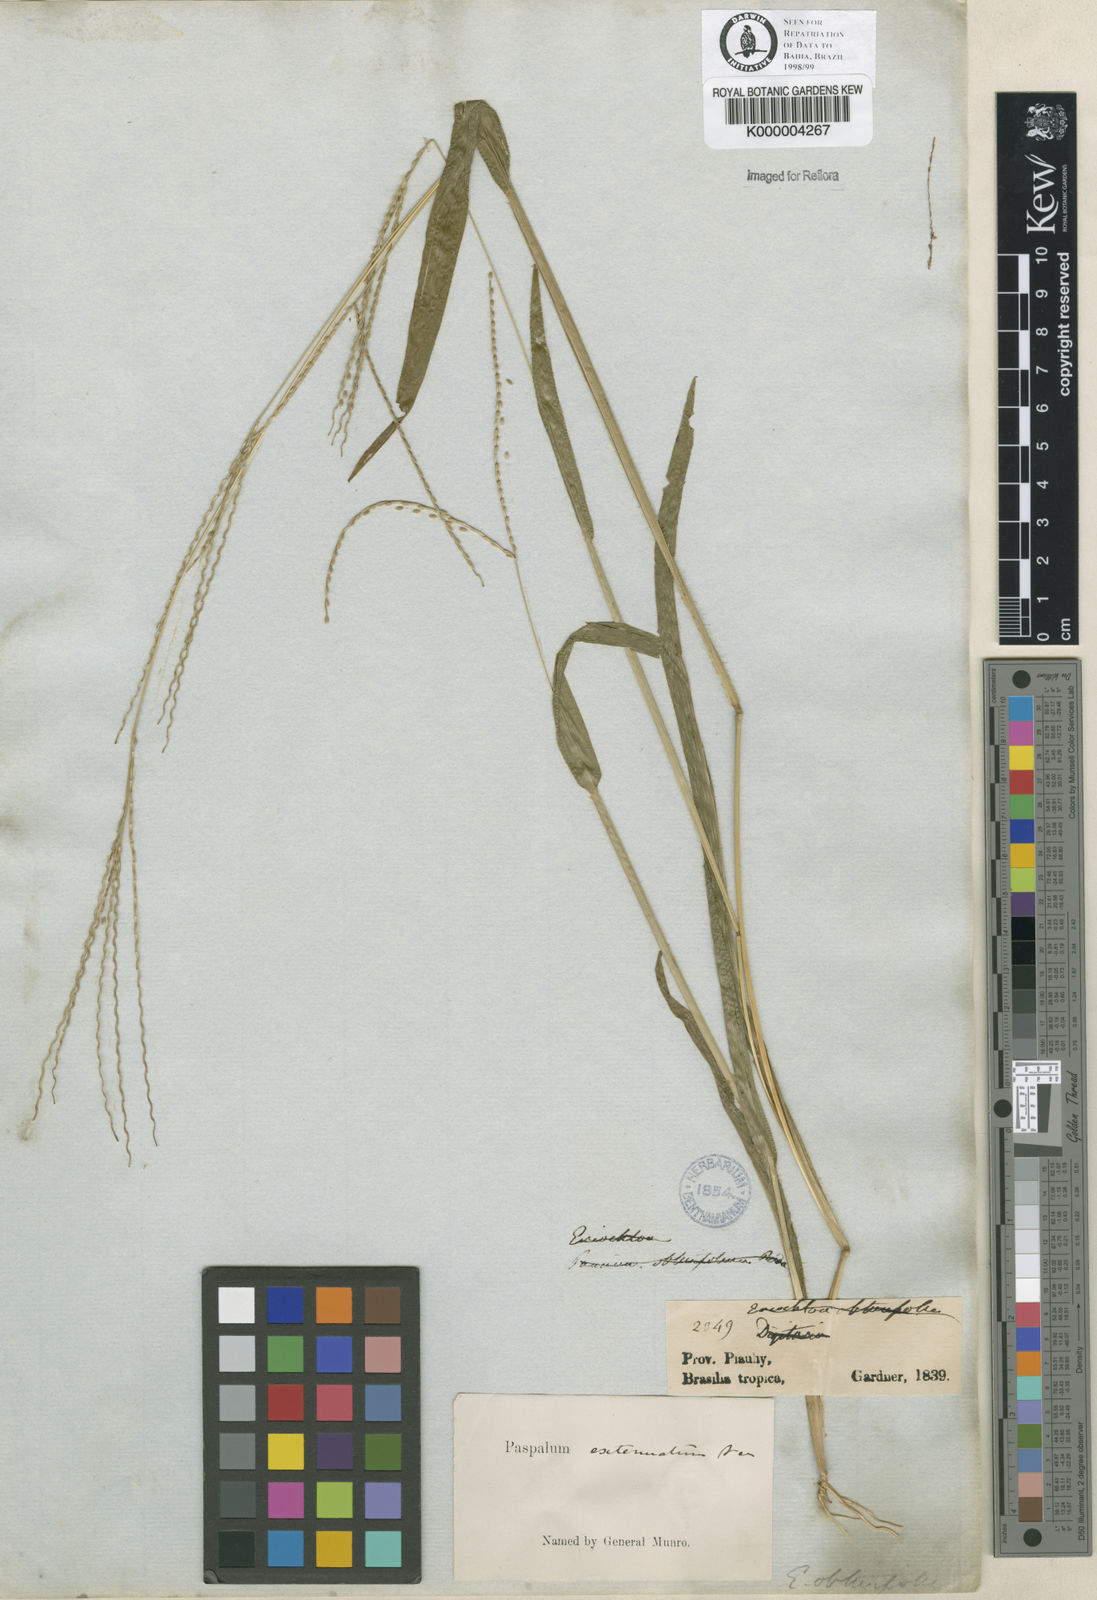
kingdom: Plantae
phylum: Tracheophyta
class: Liliopsida
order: Poales
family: Poaceae
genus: Axonopus
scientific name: Axonopus
